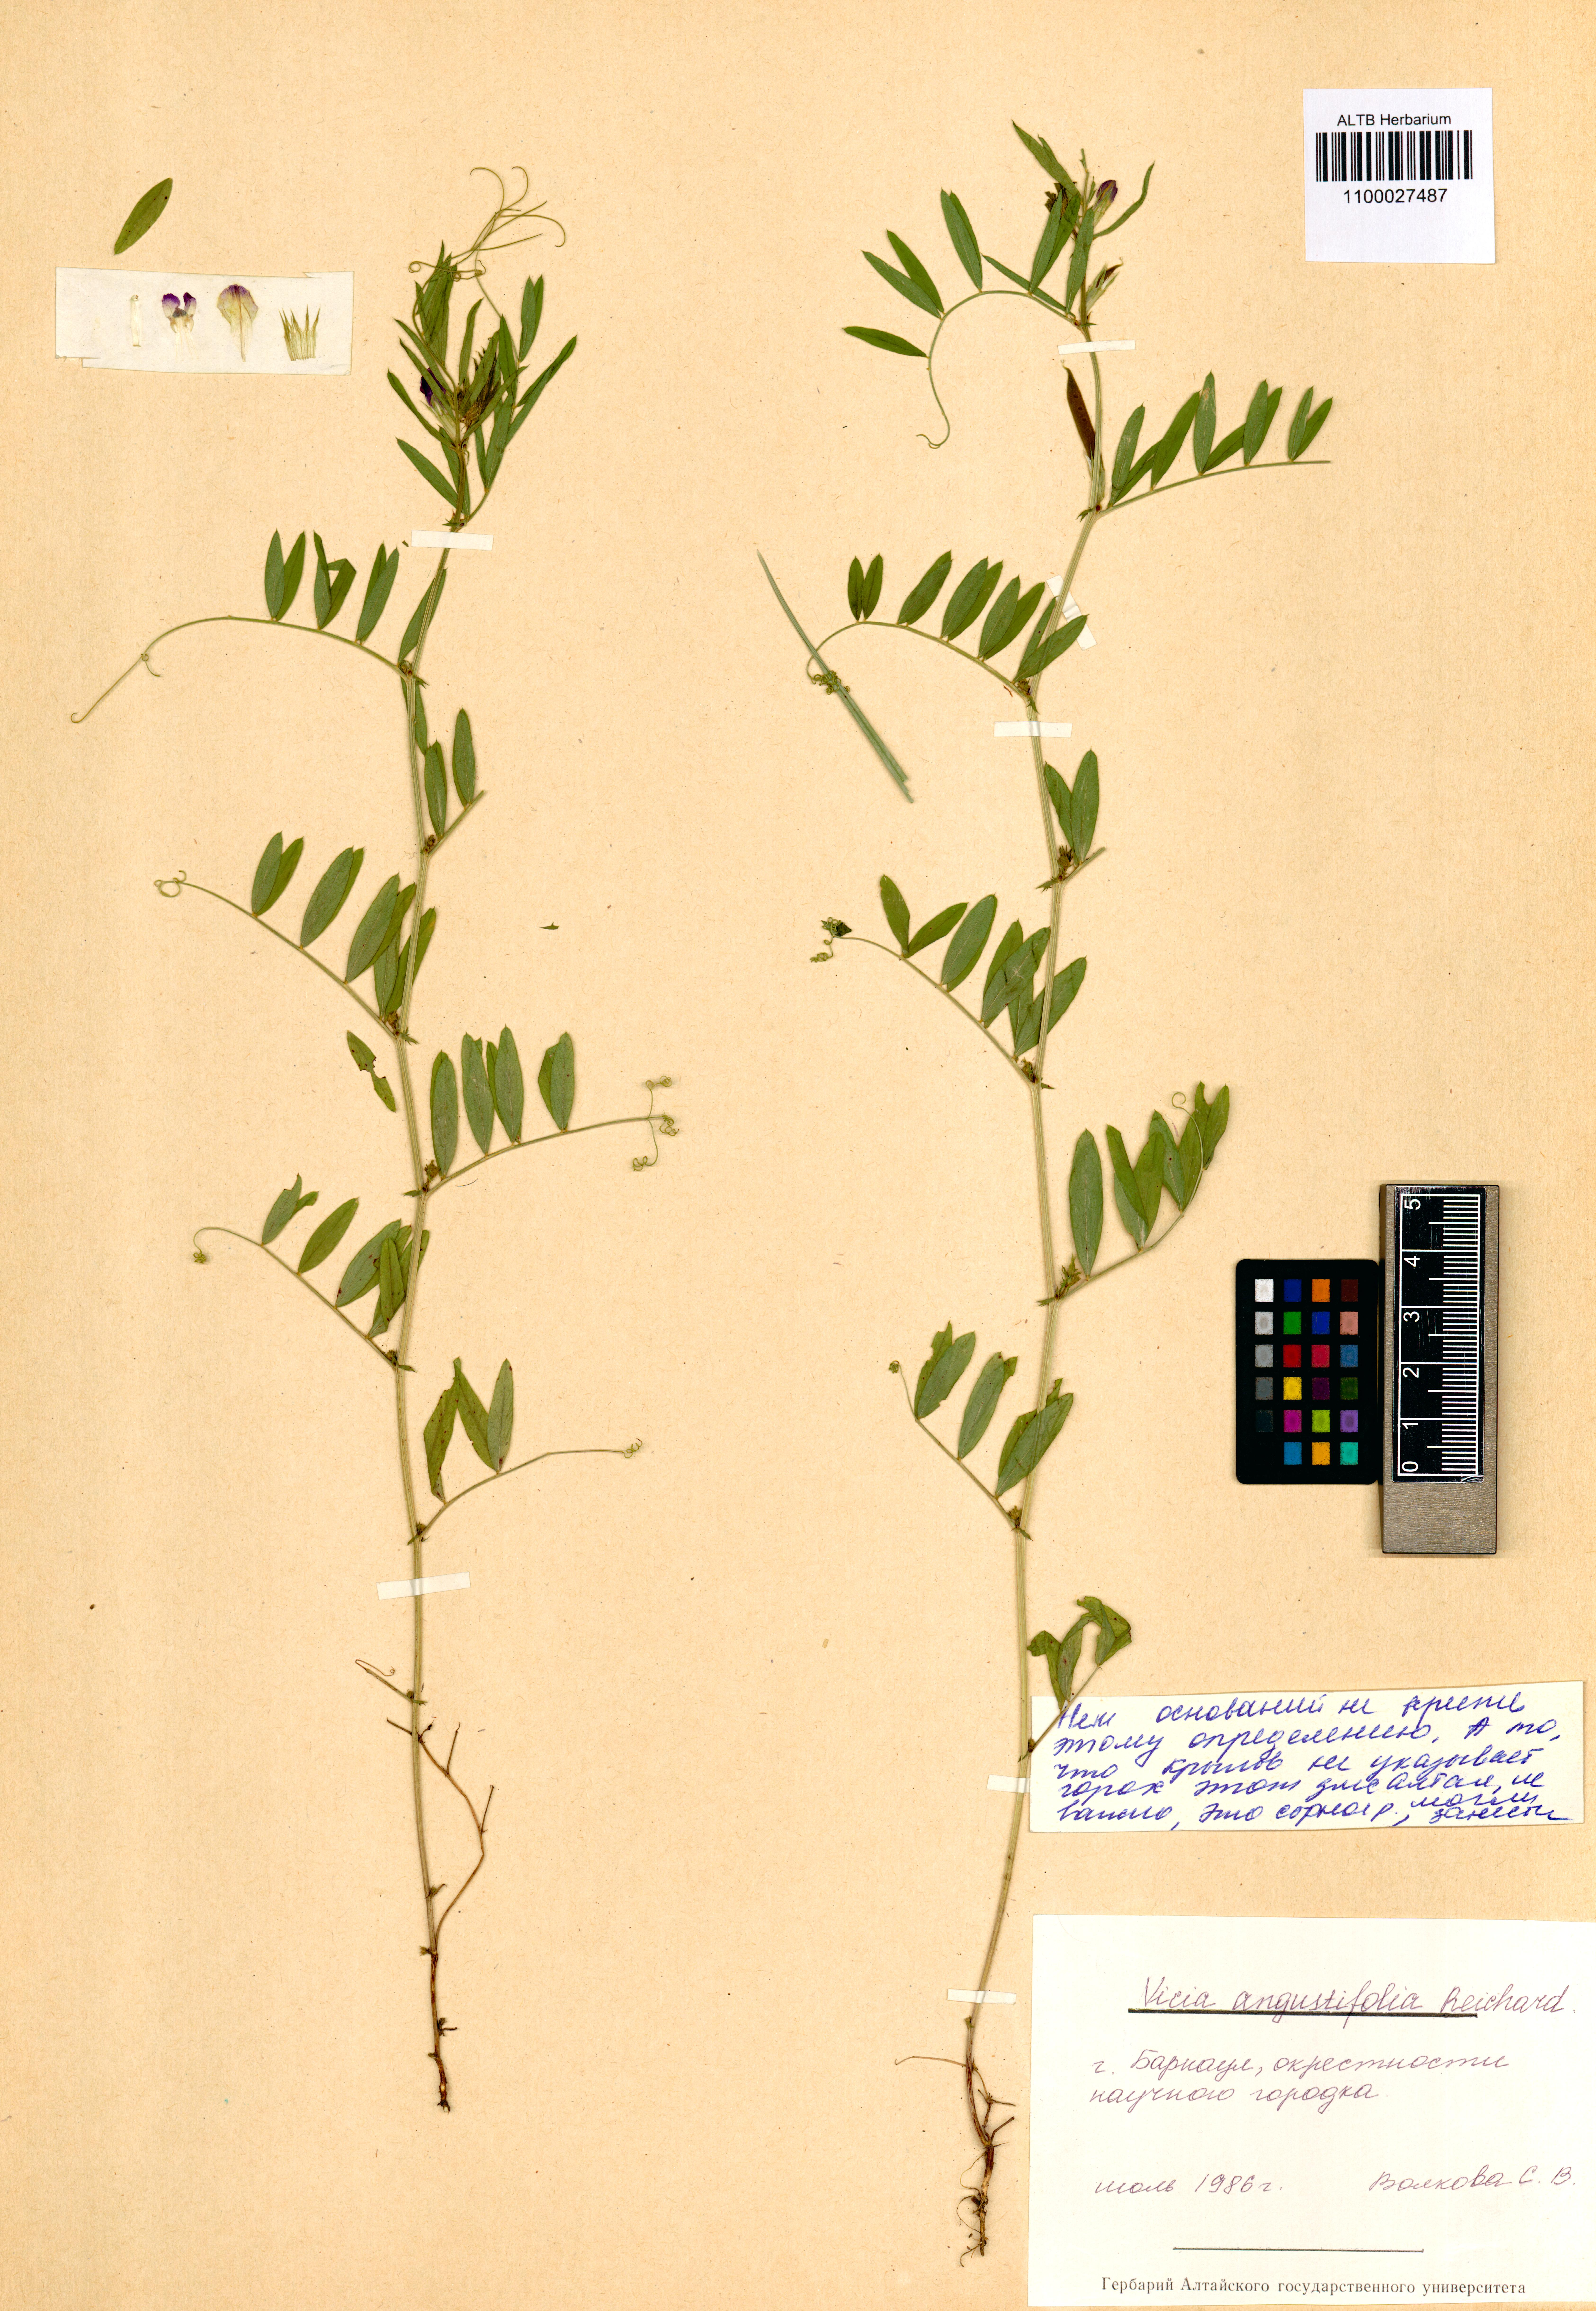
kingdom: Plantae
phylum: Tracheophyta
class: Magnoliopsida
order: Fabales
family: Fabaceae
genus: Vicia
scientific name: Vicia sativa
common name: Garden vetch
